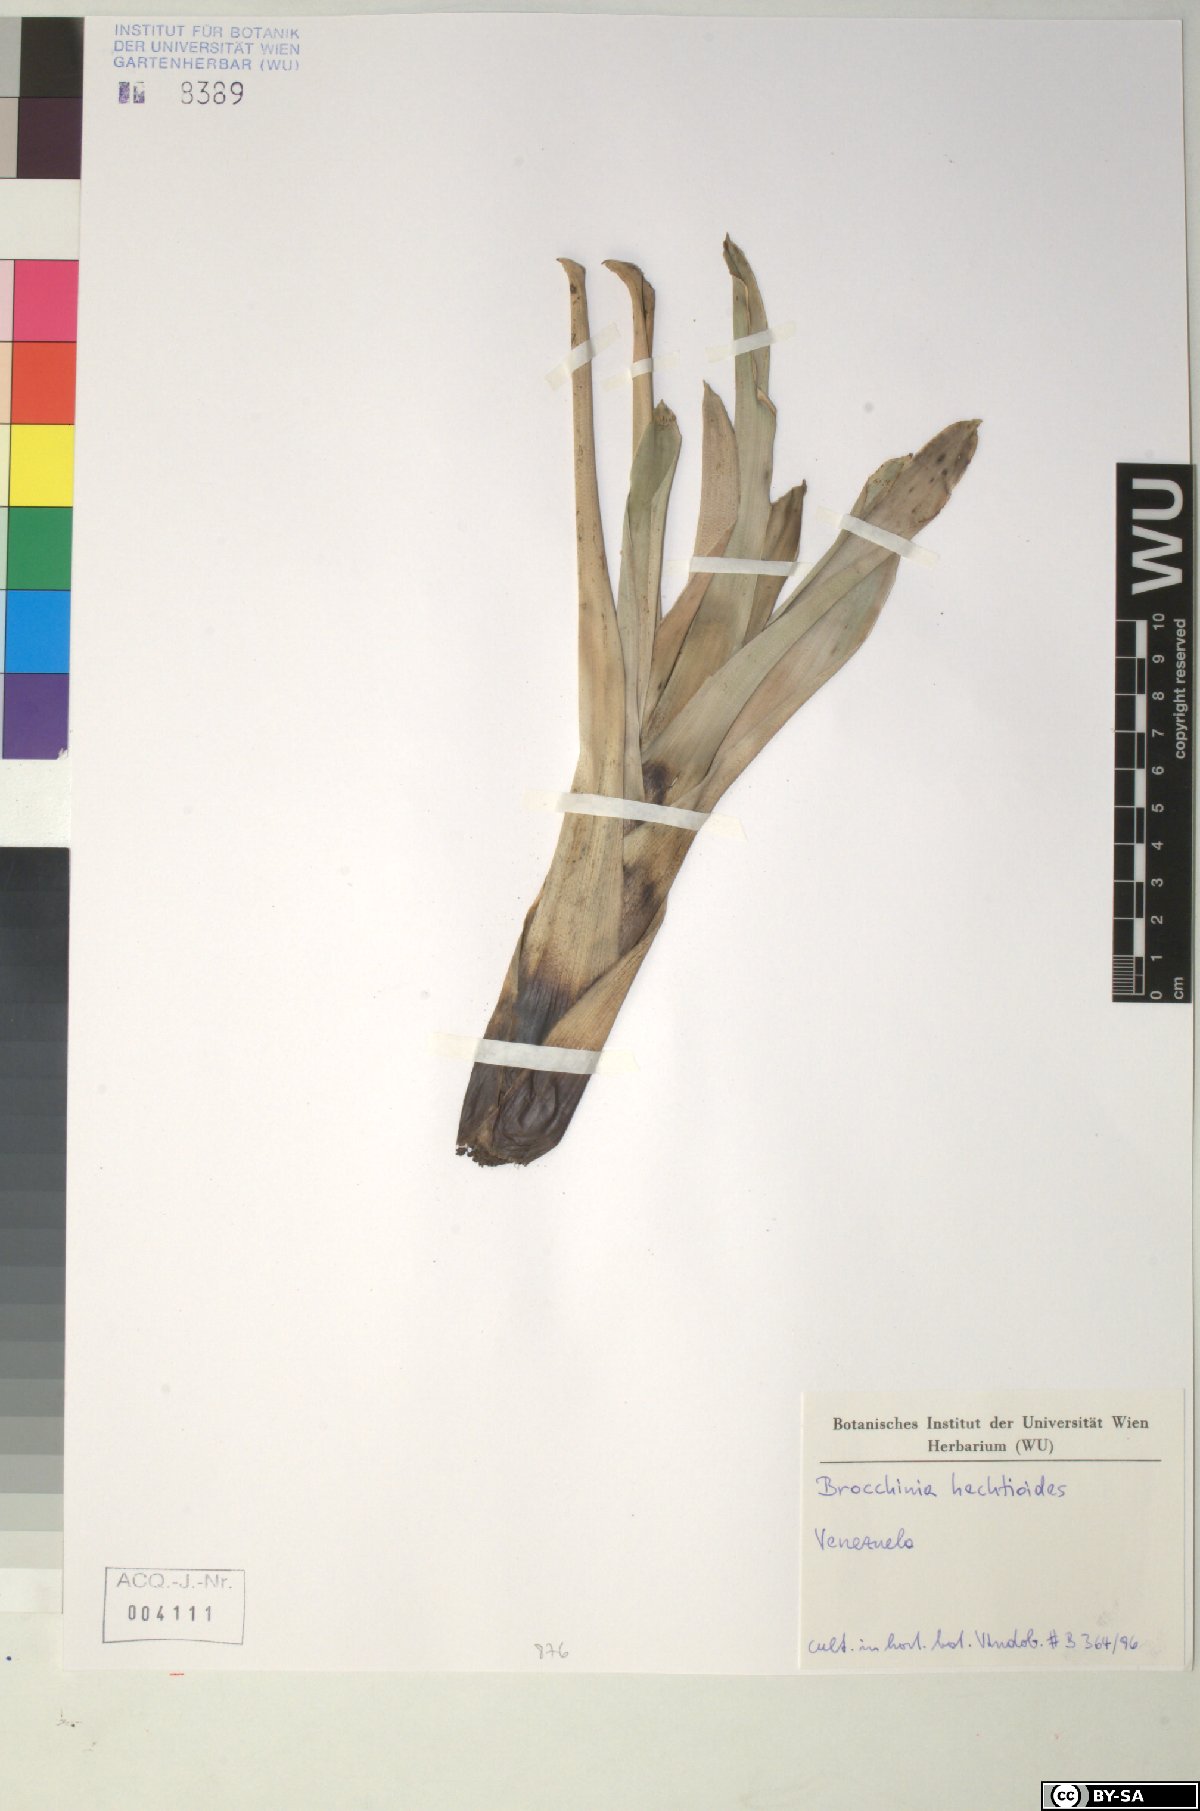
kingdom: Plantae
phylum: Tracheophyta
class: Liliopsida
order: Poales
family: Bromeliaceae
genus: Brocchinia
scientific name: Brocchinia hechtioides
